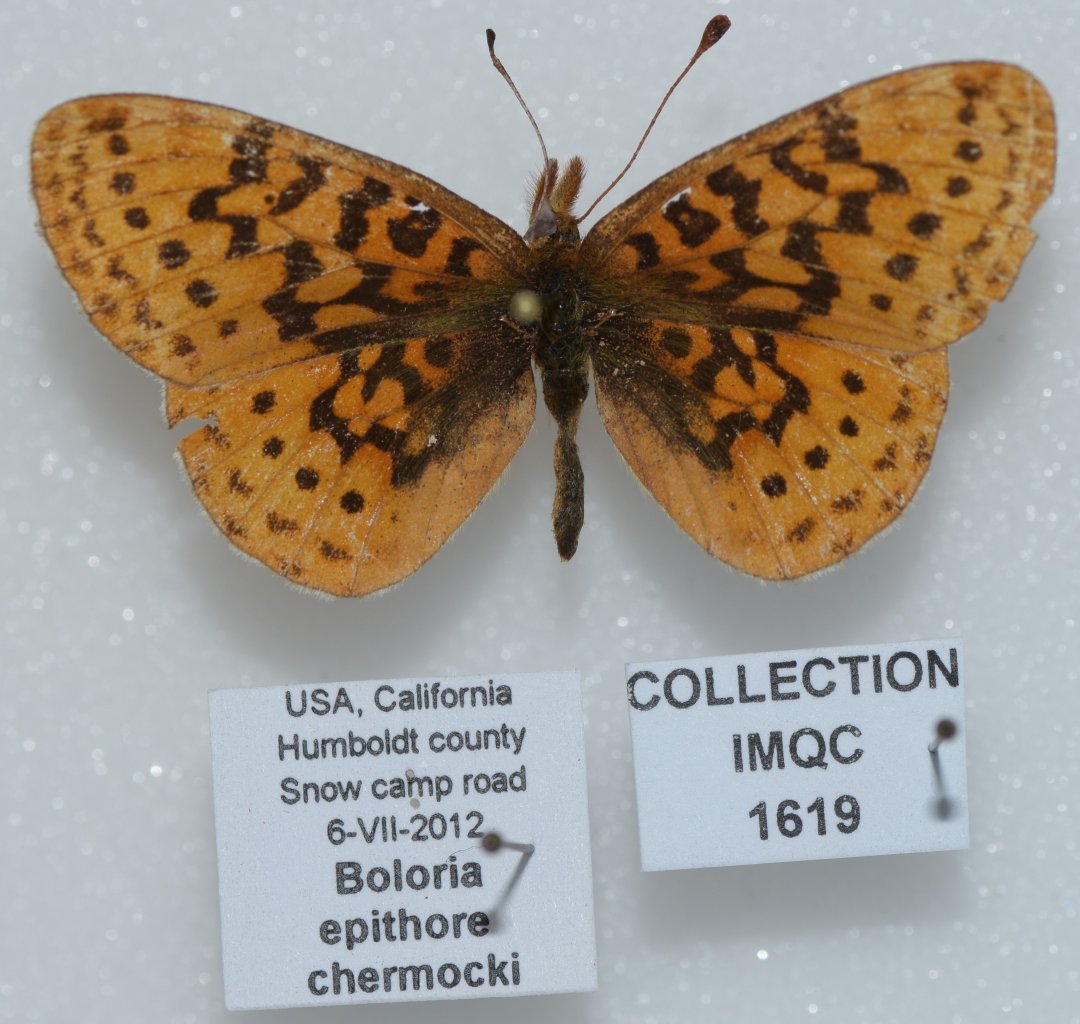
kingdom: Animalia
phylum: Arthropoda
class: Insecta
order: Lepidoptera
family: Nymphalidae
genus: Boloria
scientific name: Boloria epithore
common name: Pacific Fritillary
